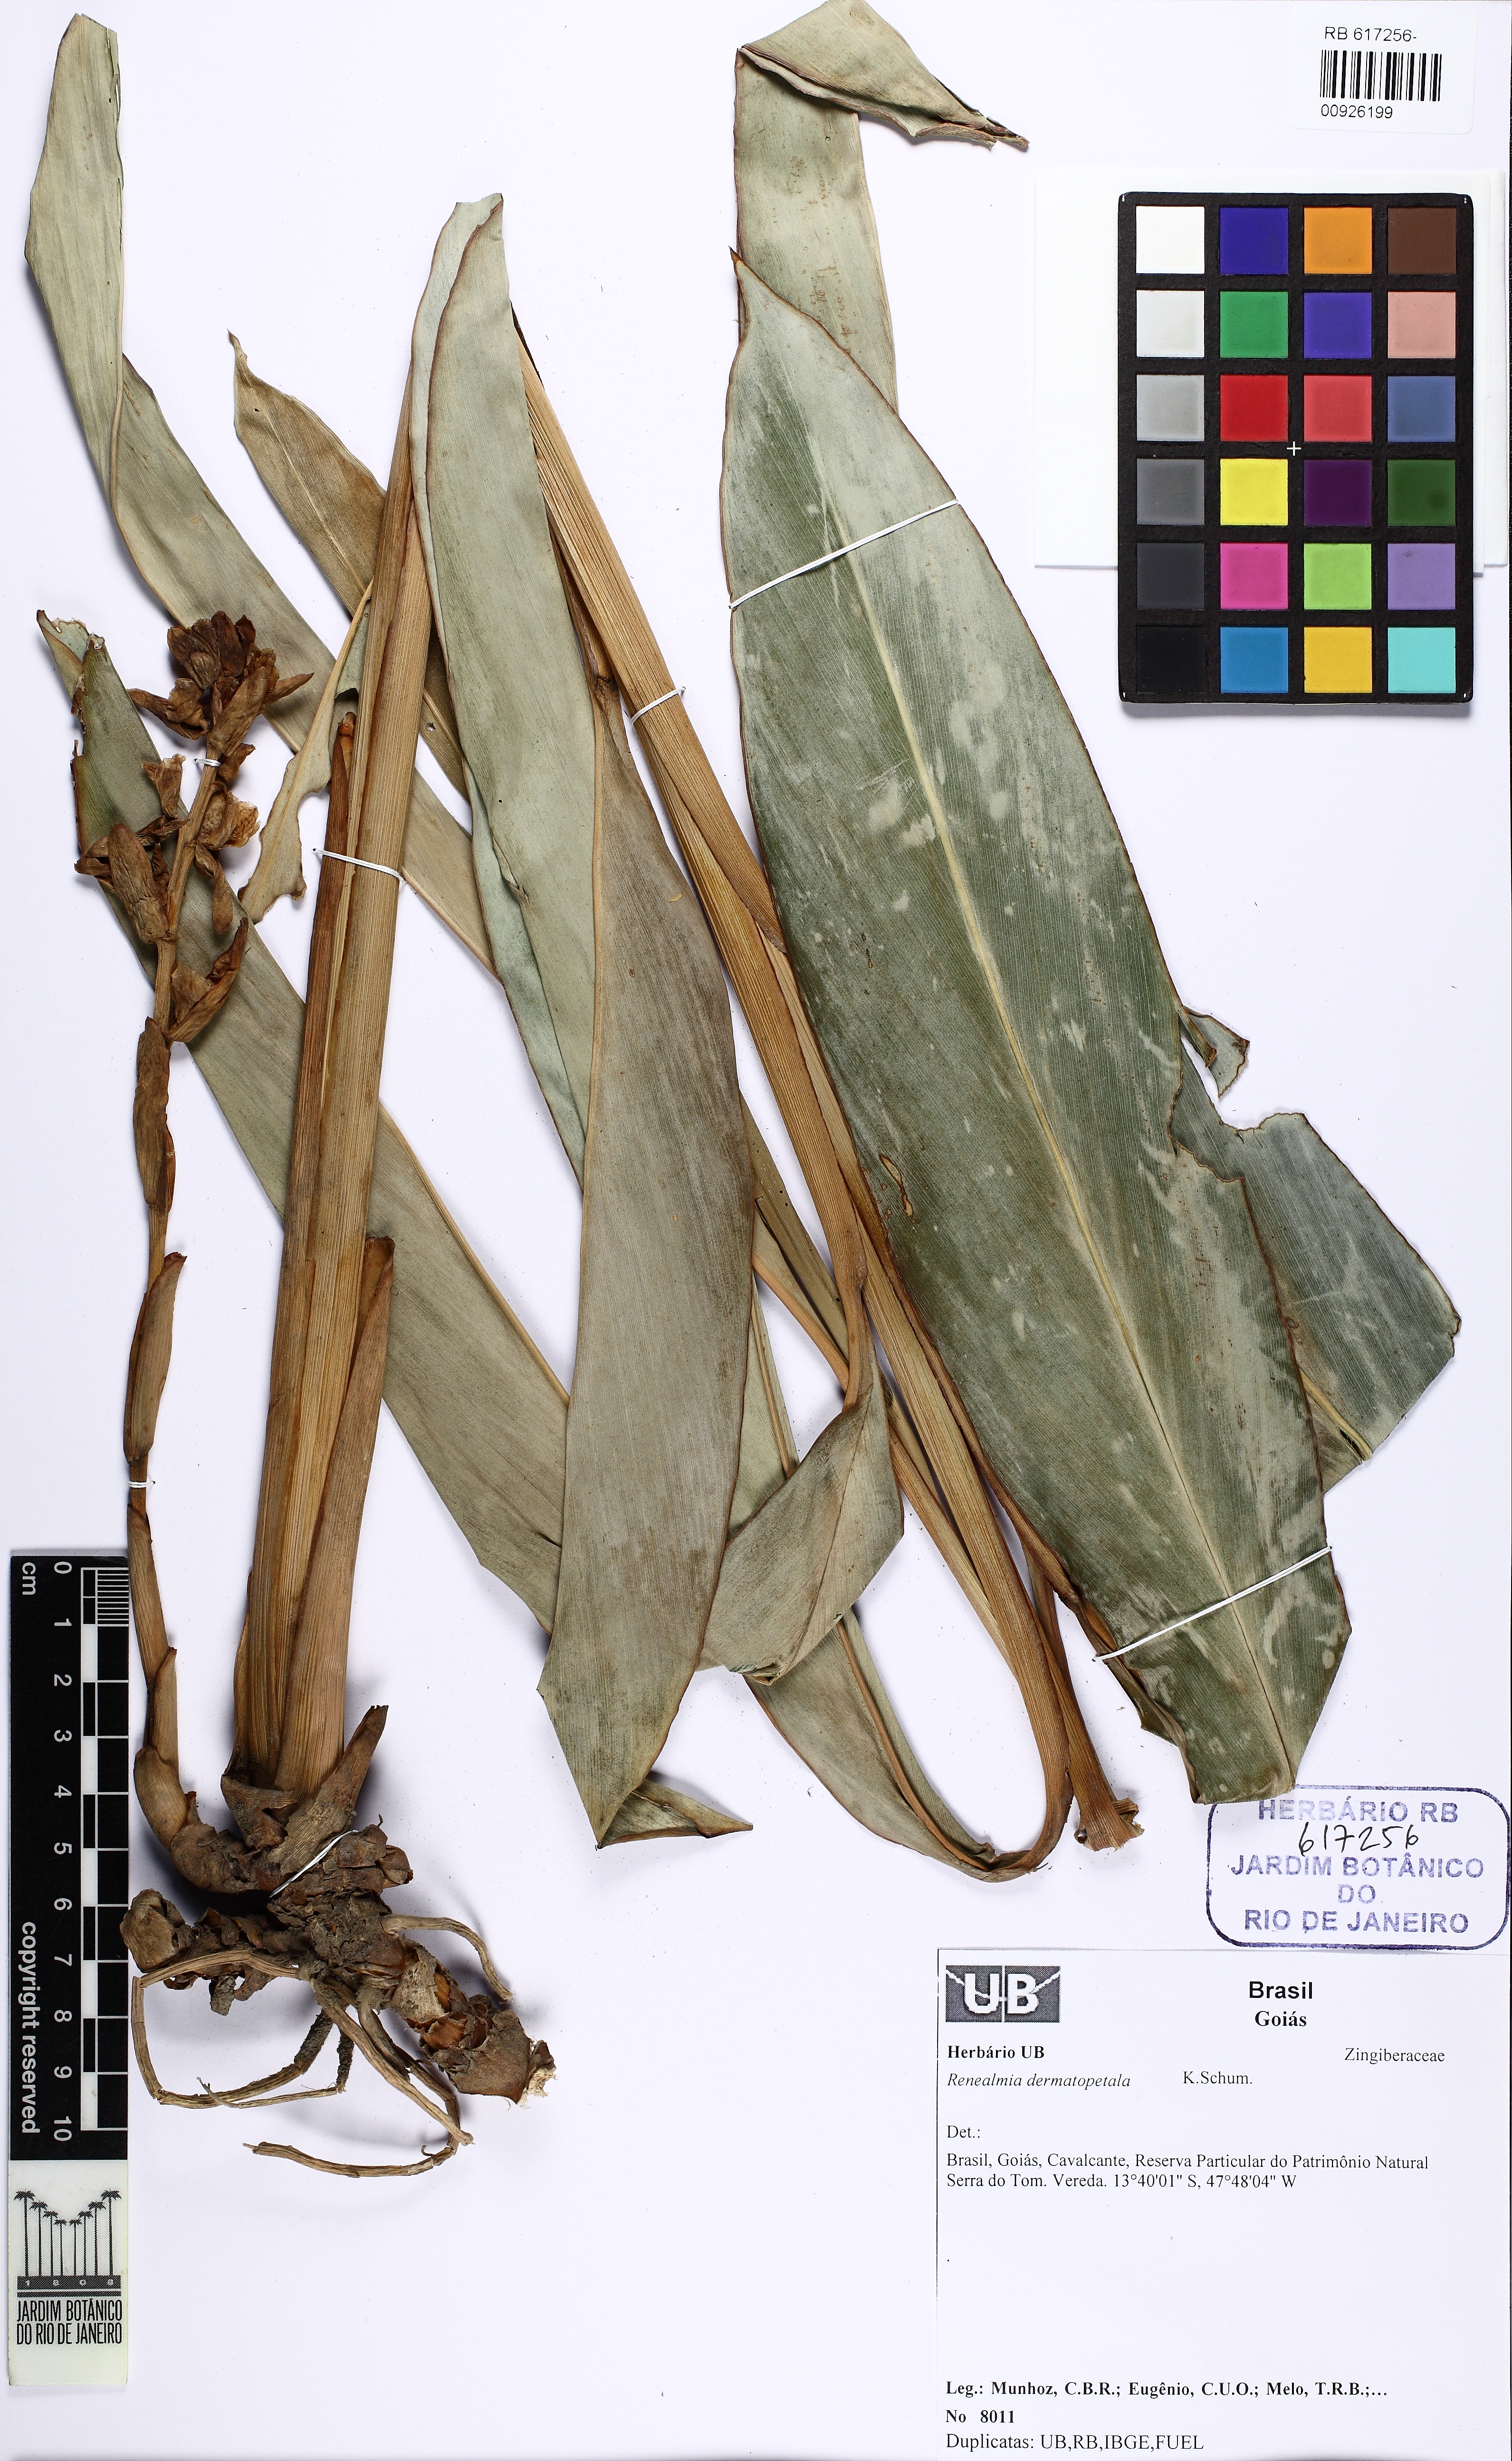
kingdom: Plantae
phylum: Tracheophyta
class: Liliopsida
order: Zingiberales
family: Zingiberaceae
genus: Renealmia
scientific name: Renealmia dermatopetala
